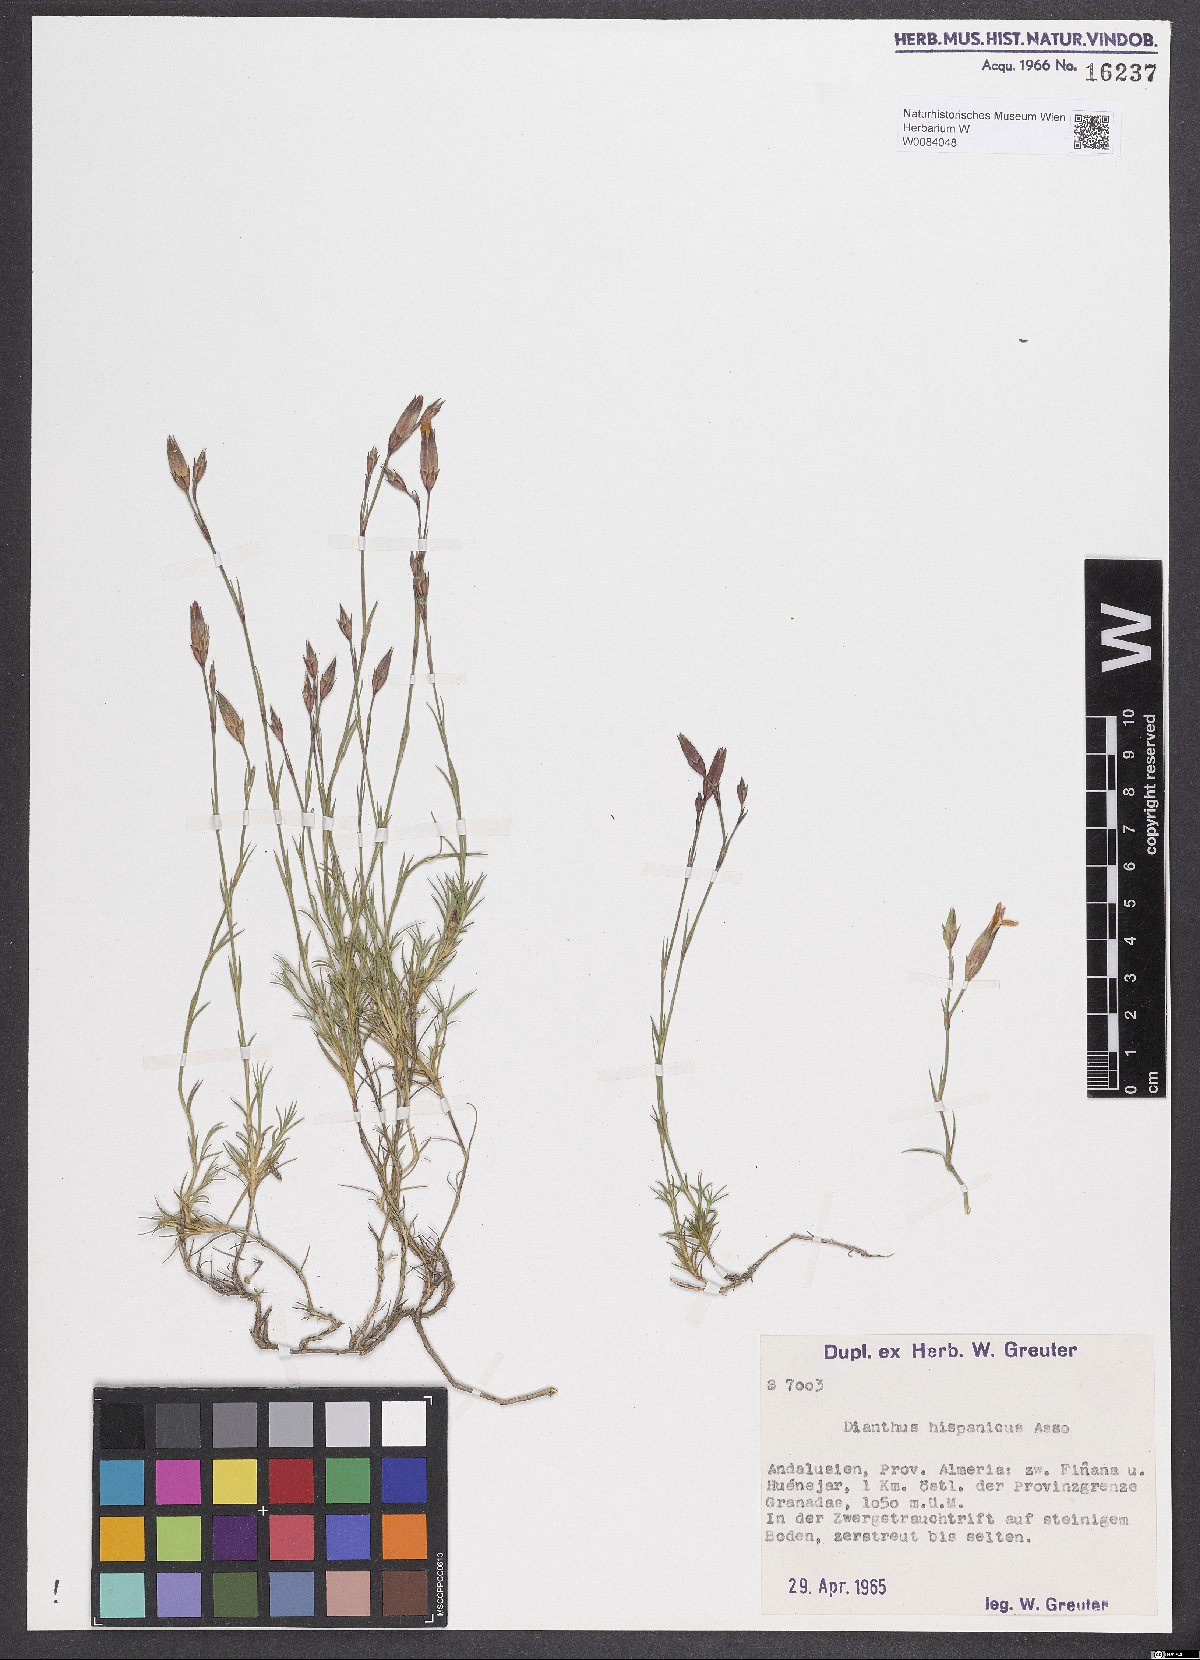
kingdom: Plantae
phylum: Tracheophyta
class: Magnoliopsida
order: Caryophyllales
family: Caryophyllaceae
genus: Dianthus
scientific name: Dianthus pungens
